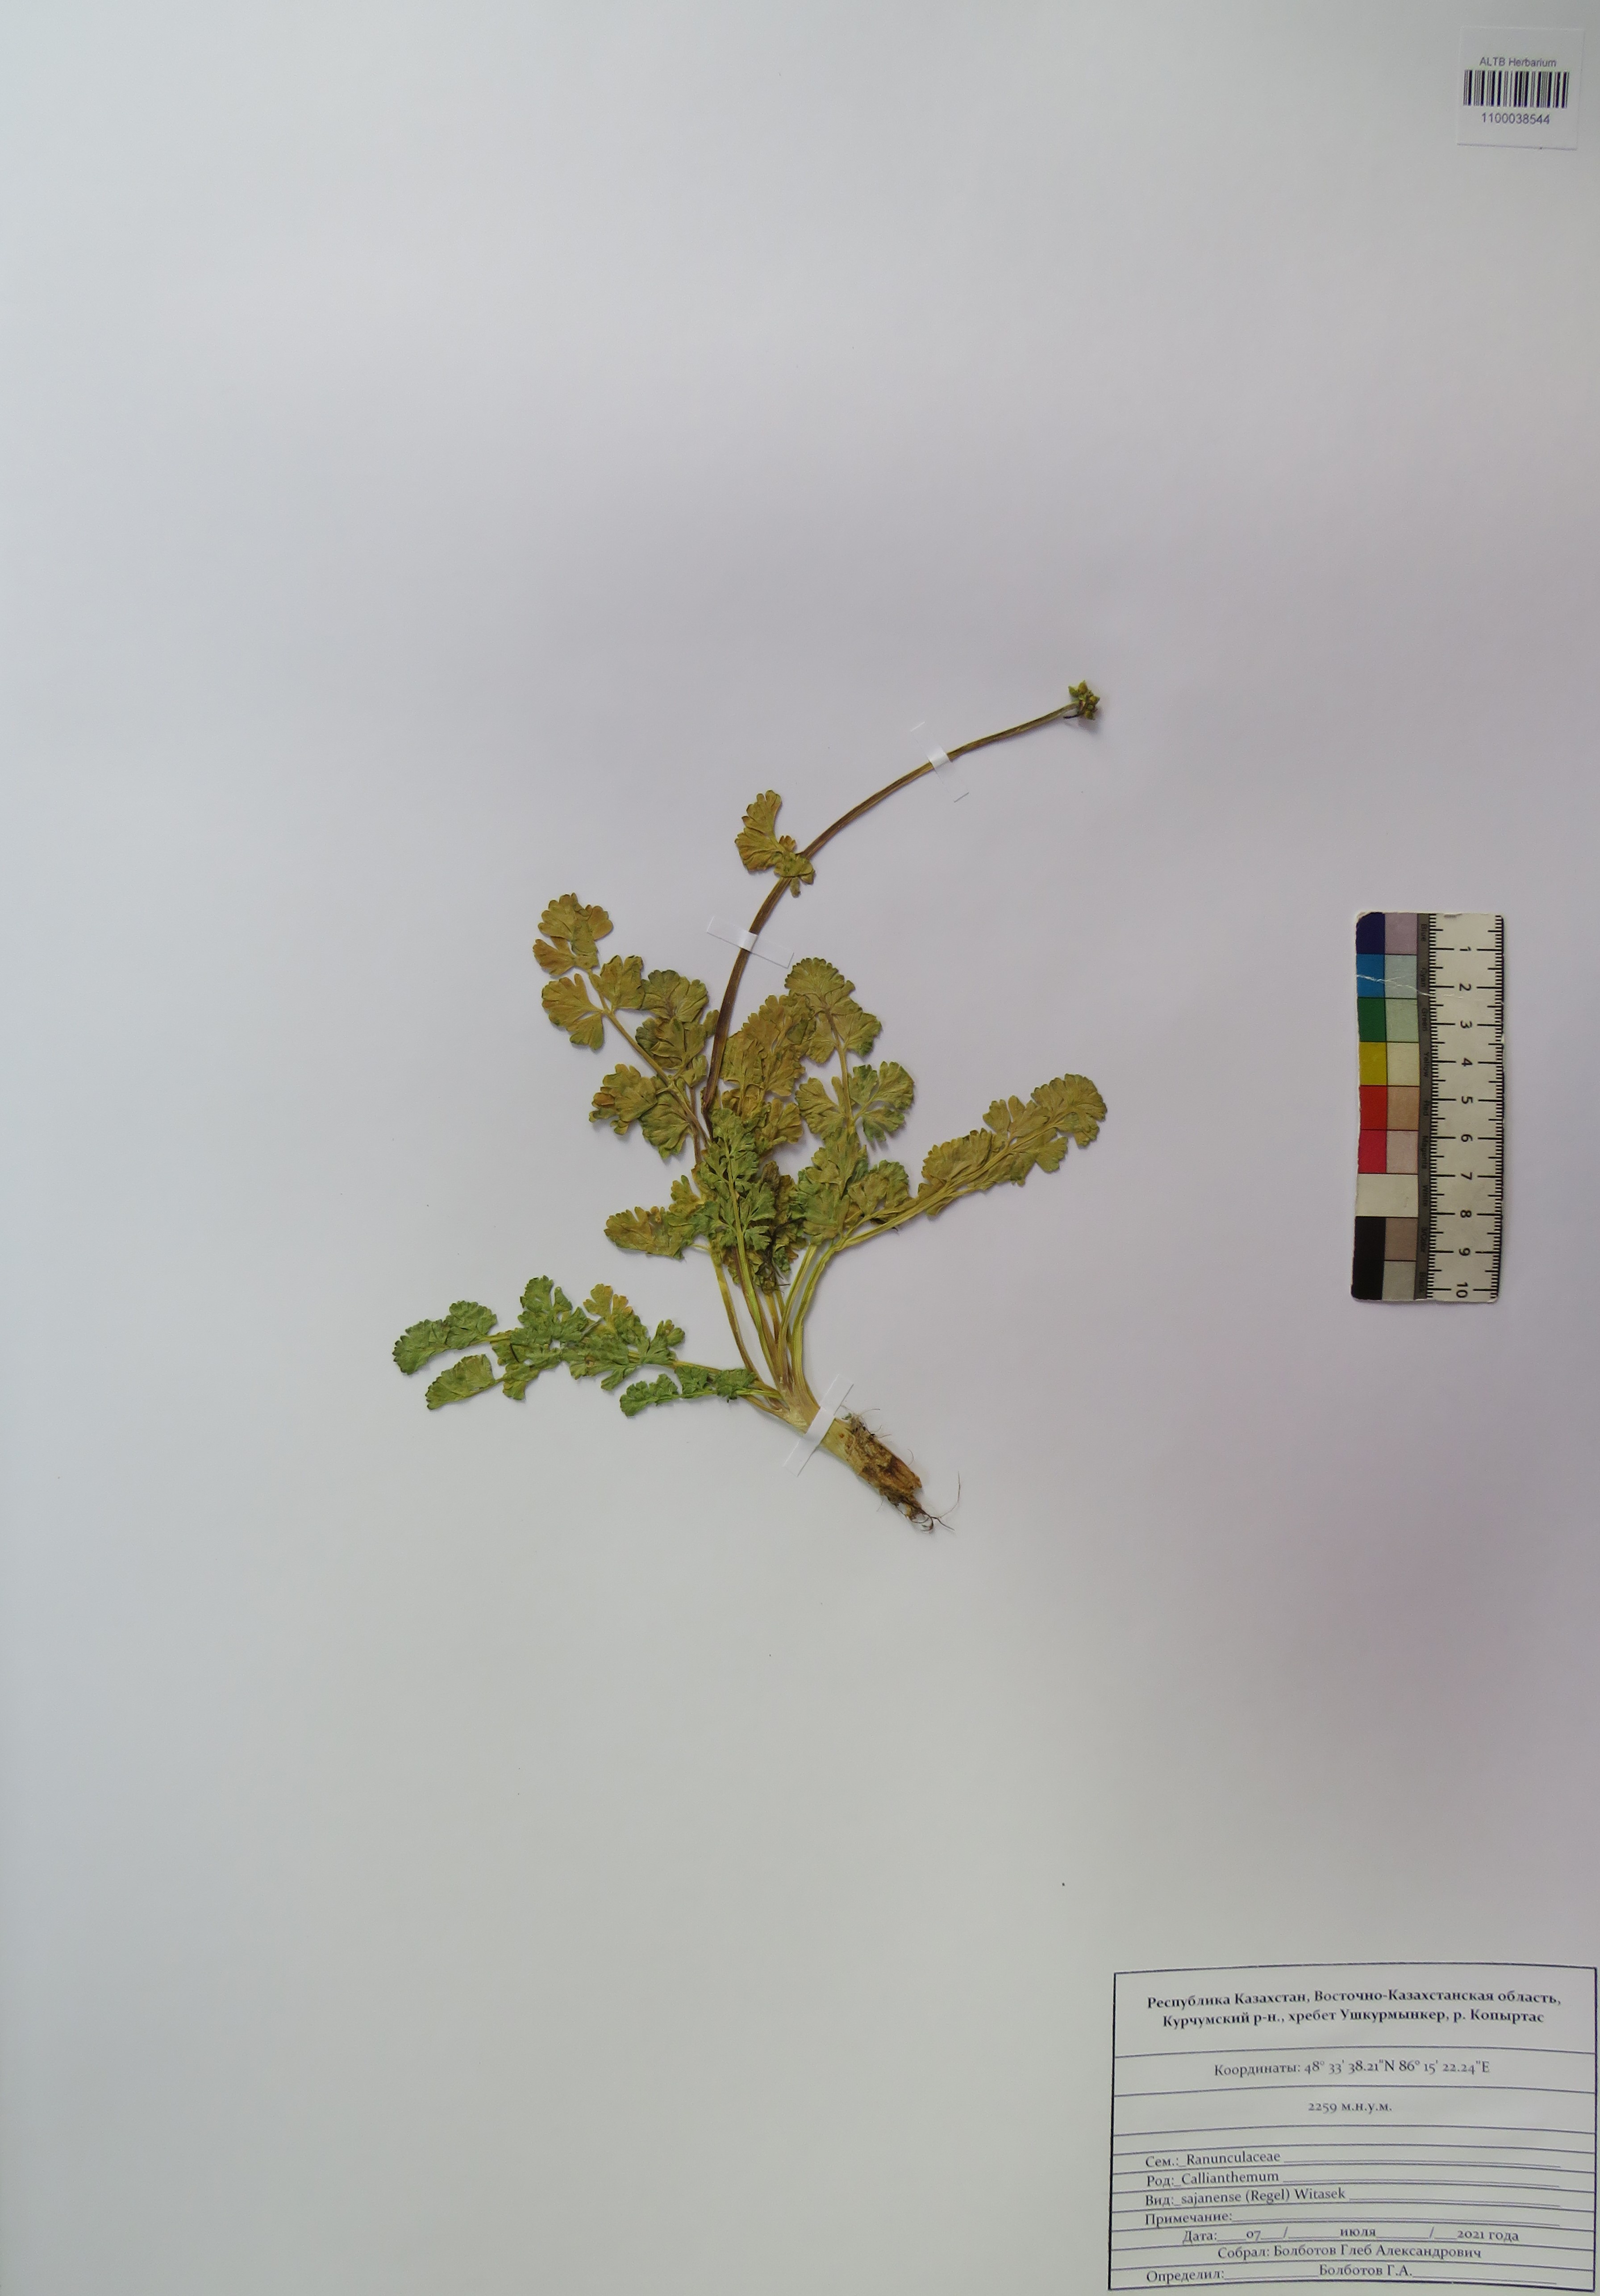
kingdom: Plantae
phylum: Tracheophyta
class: Magnoliopsida
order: Ranunculales
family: Ranunculaceae
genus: Callianthemum
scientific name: Callianthemum sajanense
